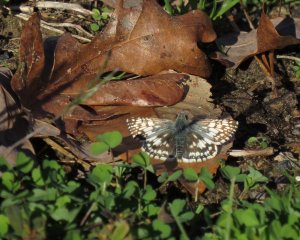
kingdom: Animalia
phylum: Arthropoda
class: Insecta
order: Lepidoptera
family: Hesperiidae
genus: Pyrgus
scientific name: Pyrgus communis
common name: Common Checkered-Skipper
